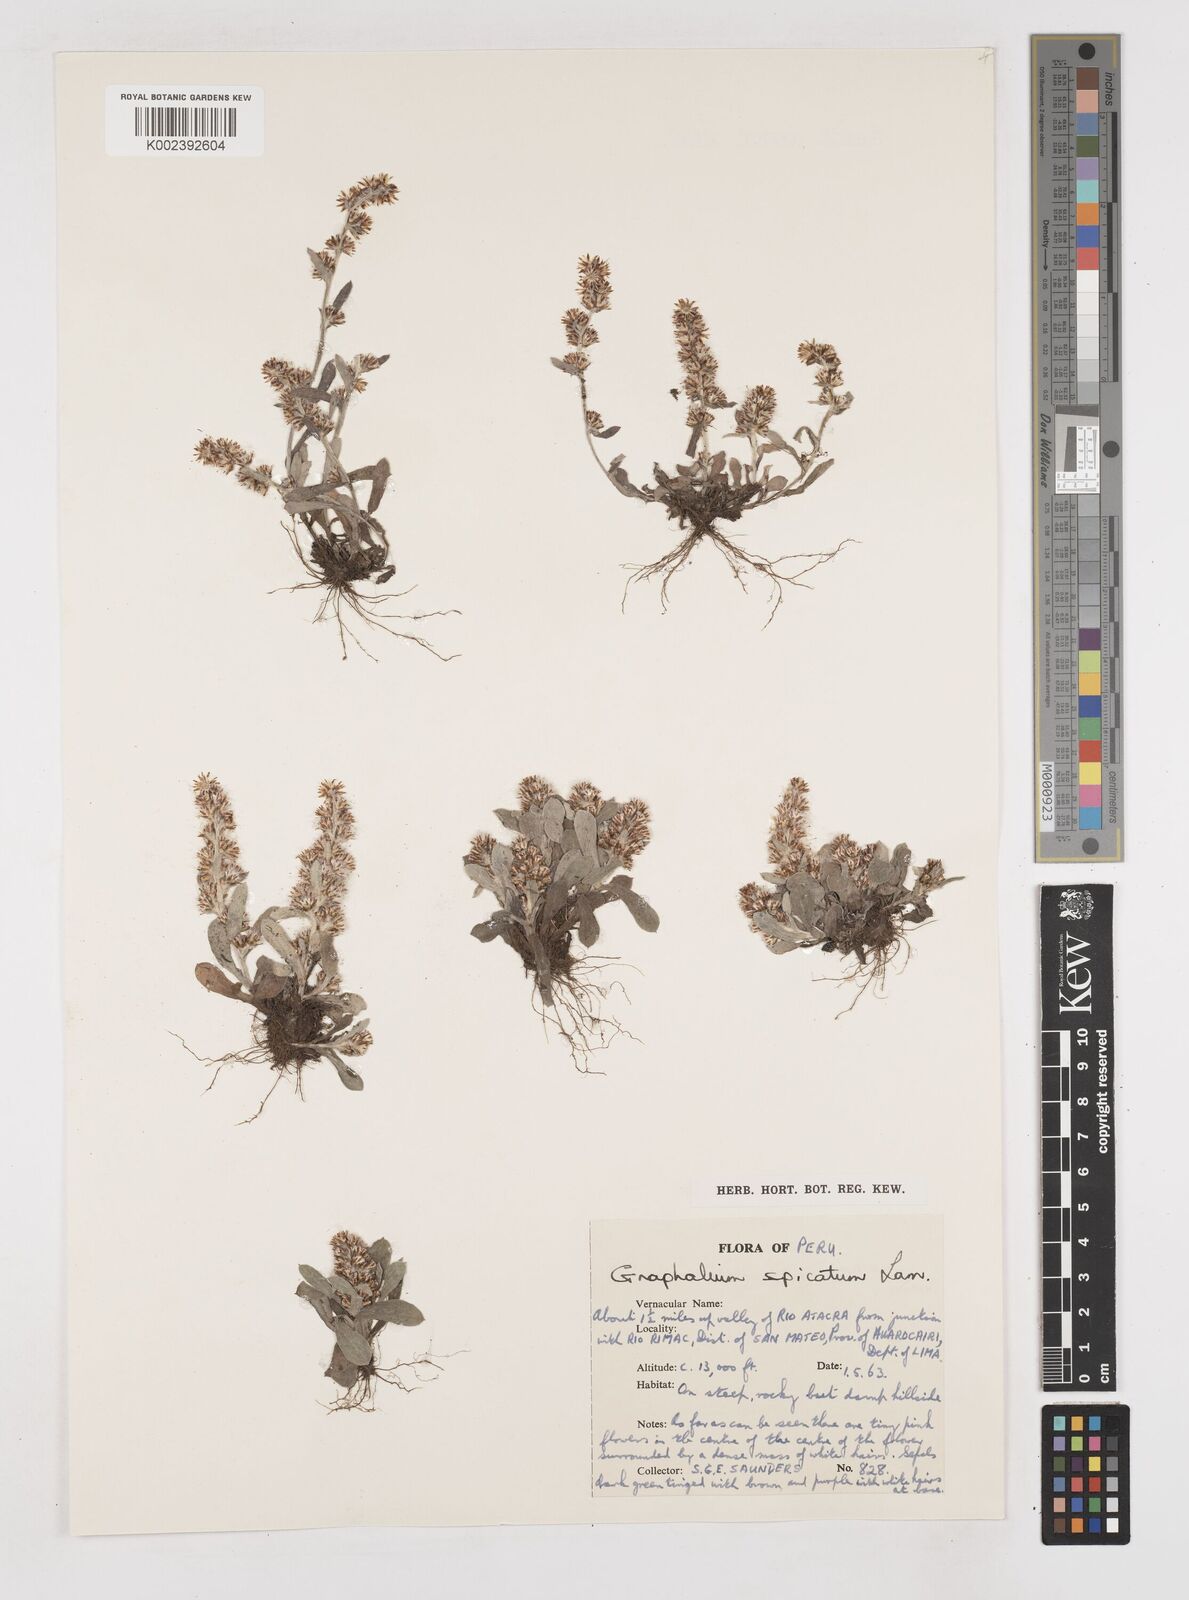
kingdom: Plantae
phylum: Tracheophyta
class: Magnoliopsida
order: Asterales
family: Asteraceae
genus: Gamochaeta
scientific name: Gamochaeta americana
